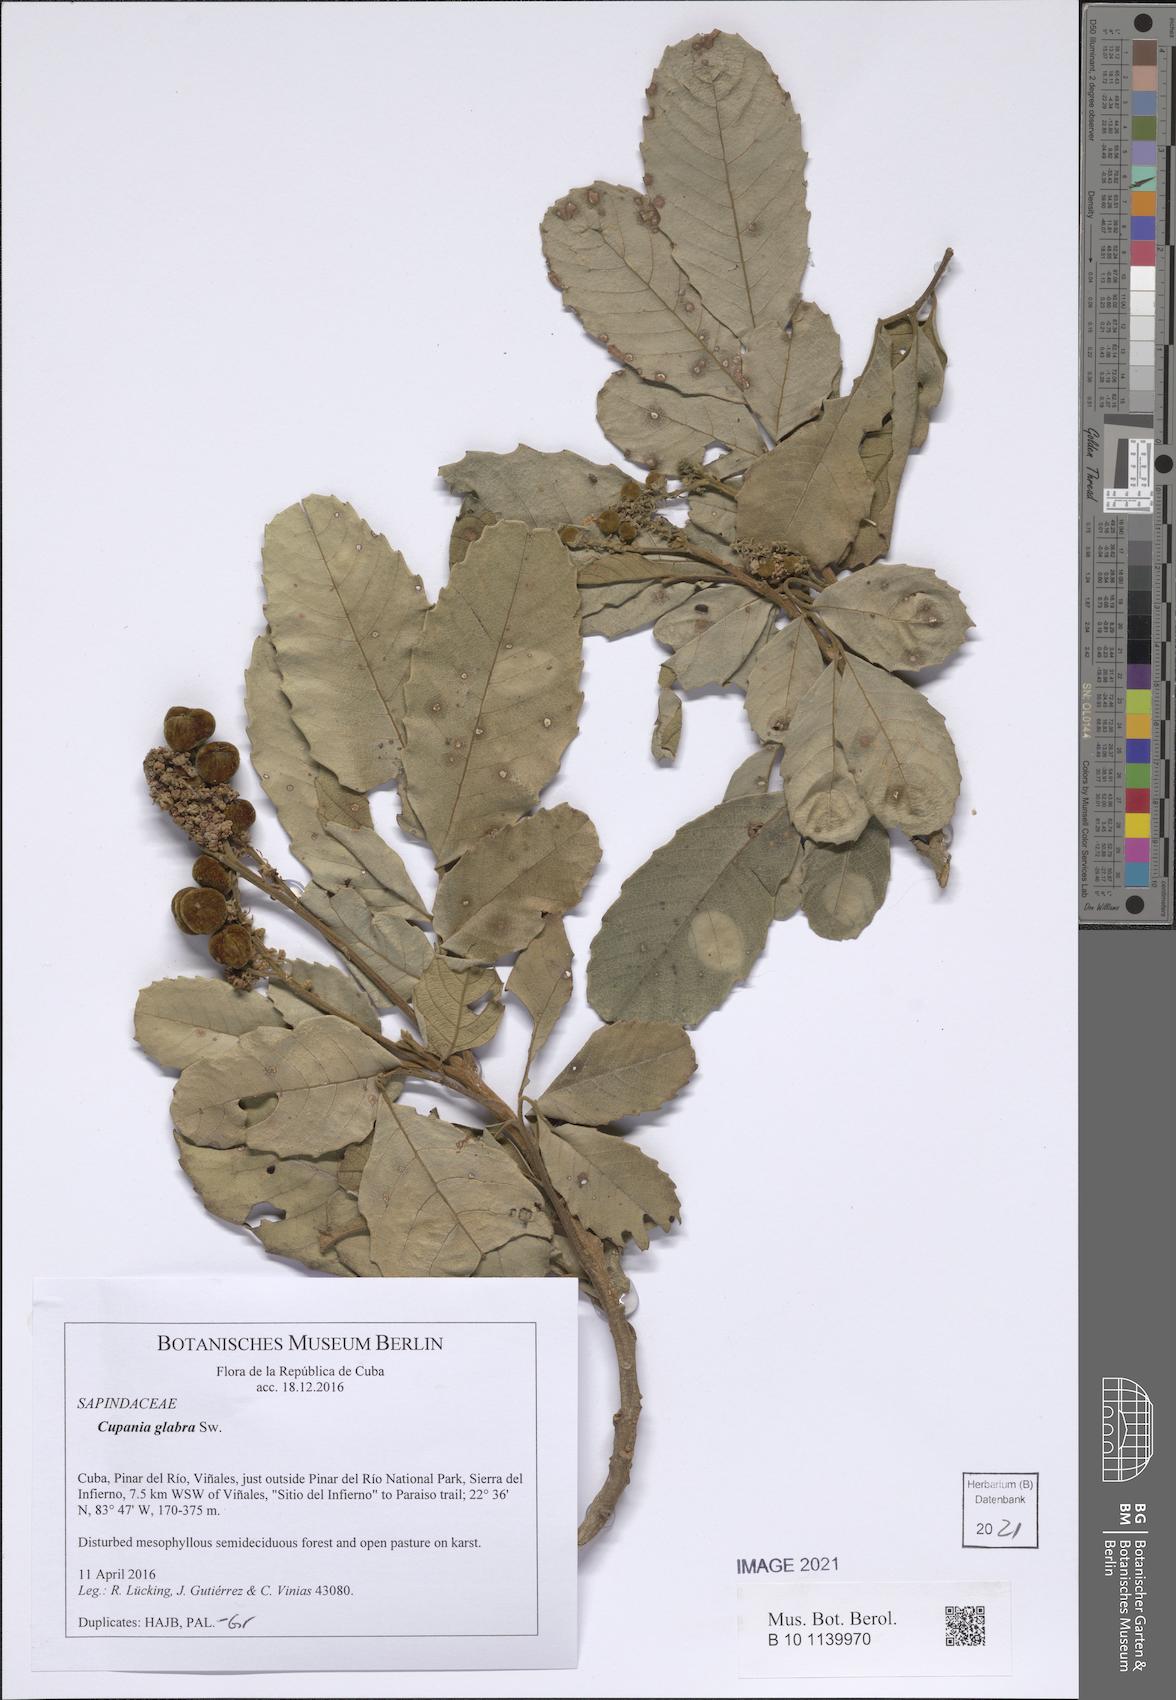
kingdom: Plantae
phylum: Tracheophyta
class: Magnoliopsida
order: Sapindales
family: Sapindaceae
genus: Cupania
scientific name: Cupania americana
